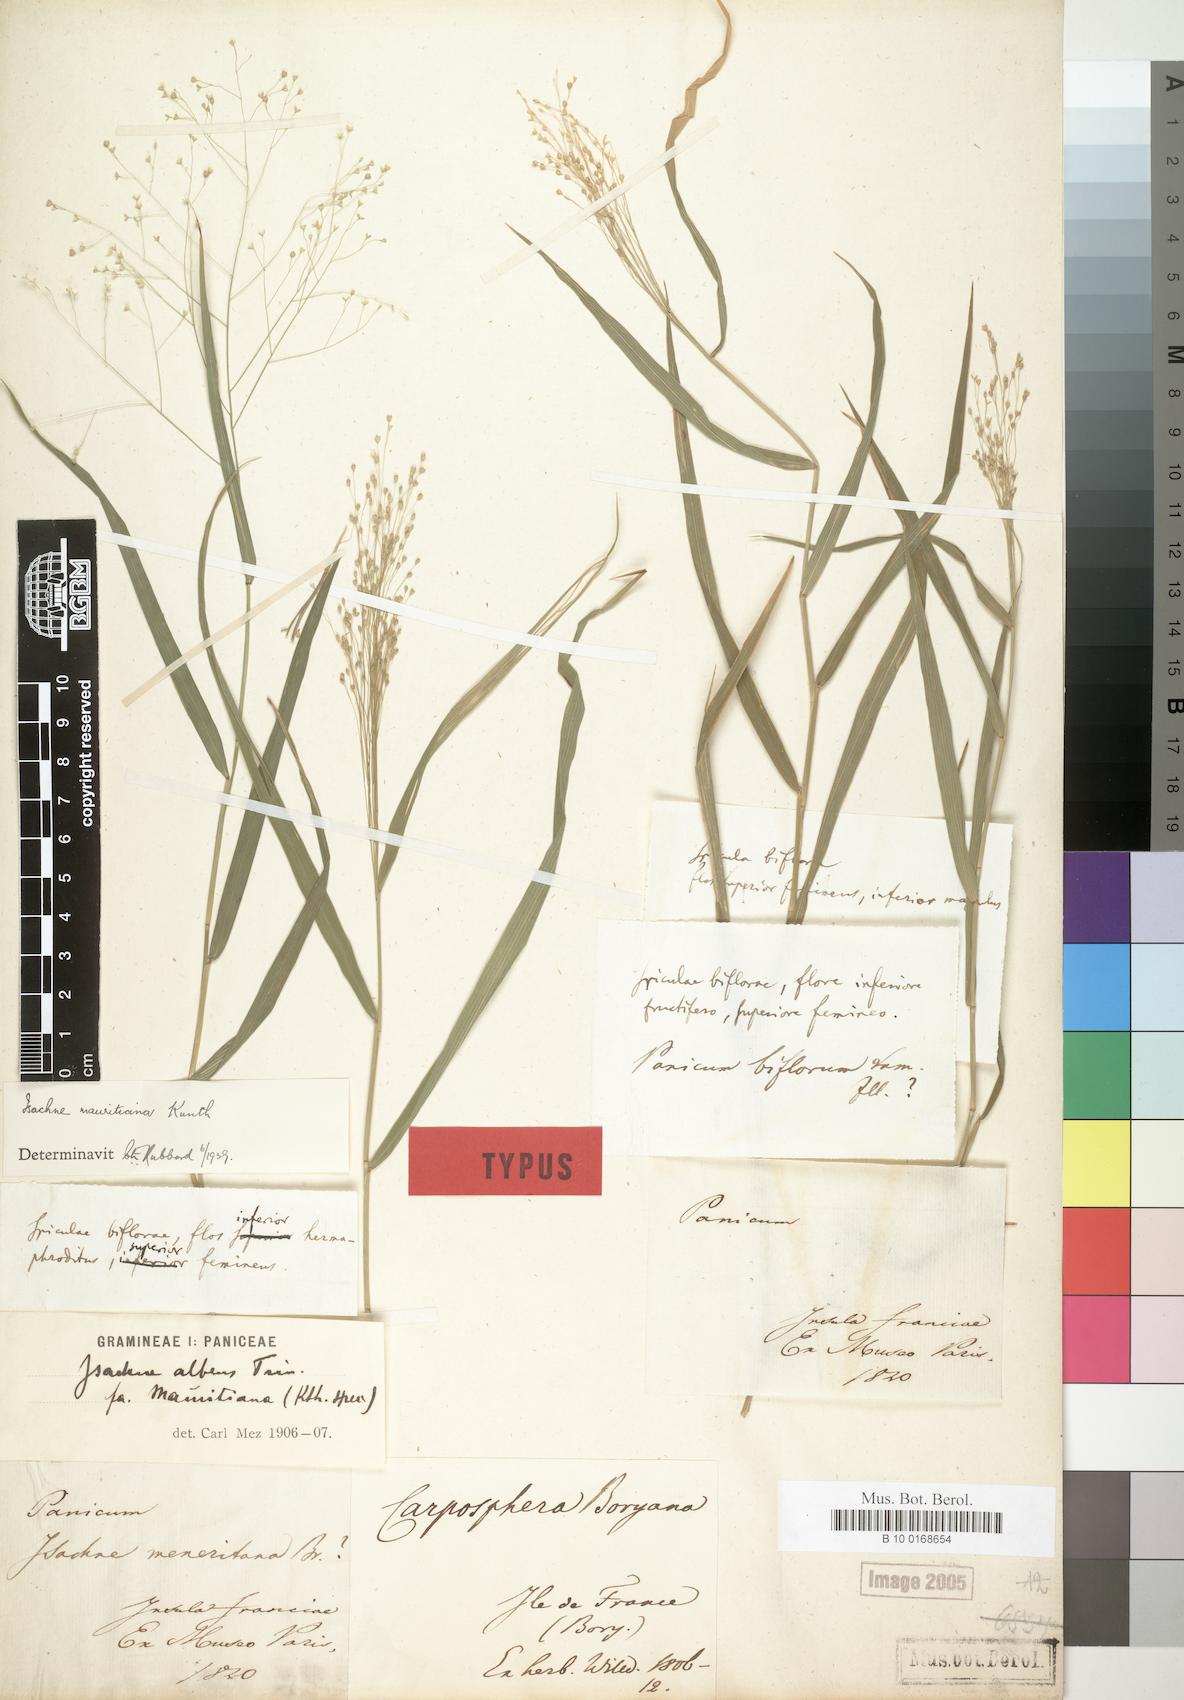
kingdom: Plantae
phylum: Tracheophyta
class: Liliopsida
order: Poales
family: Poaceae
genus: Isachne
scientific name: Isachne mauritiana
